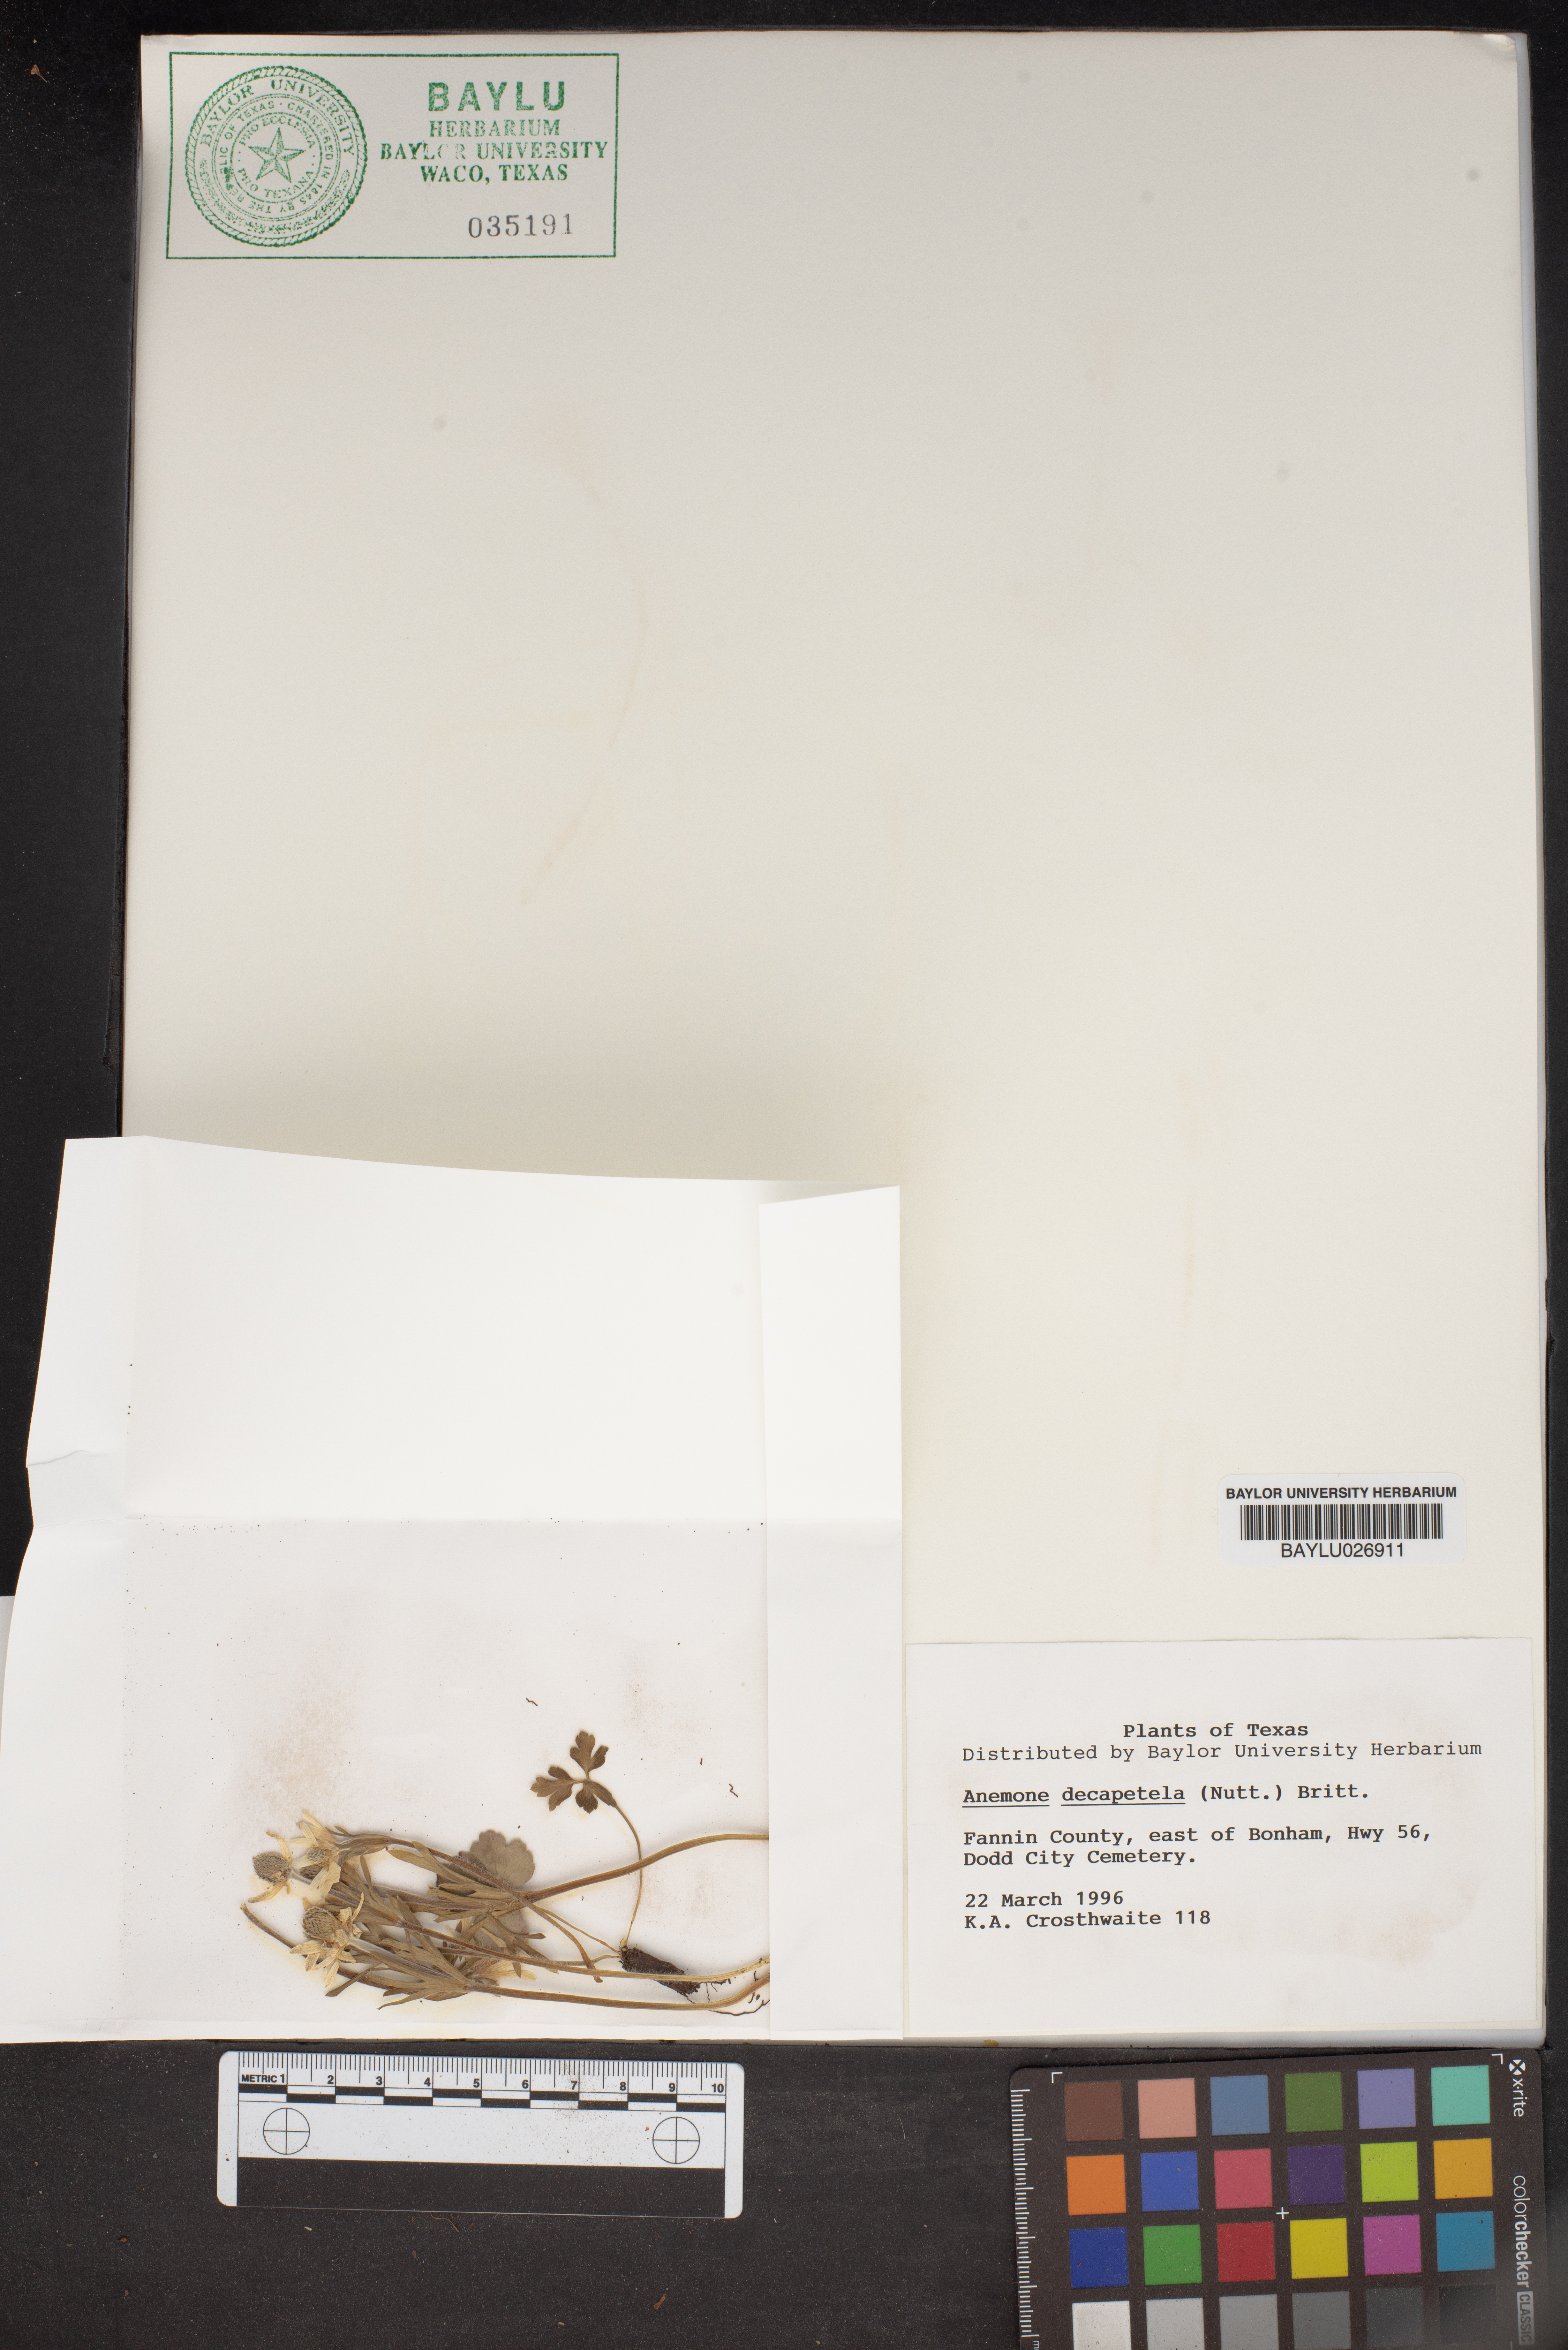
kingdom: Plantae
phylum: Tracheophyta
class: Magnoliopsida
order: Ranunculales
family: Ranunculaceae
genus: Anemone
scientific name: Anemone decapetala
